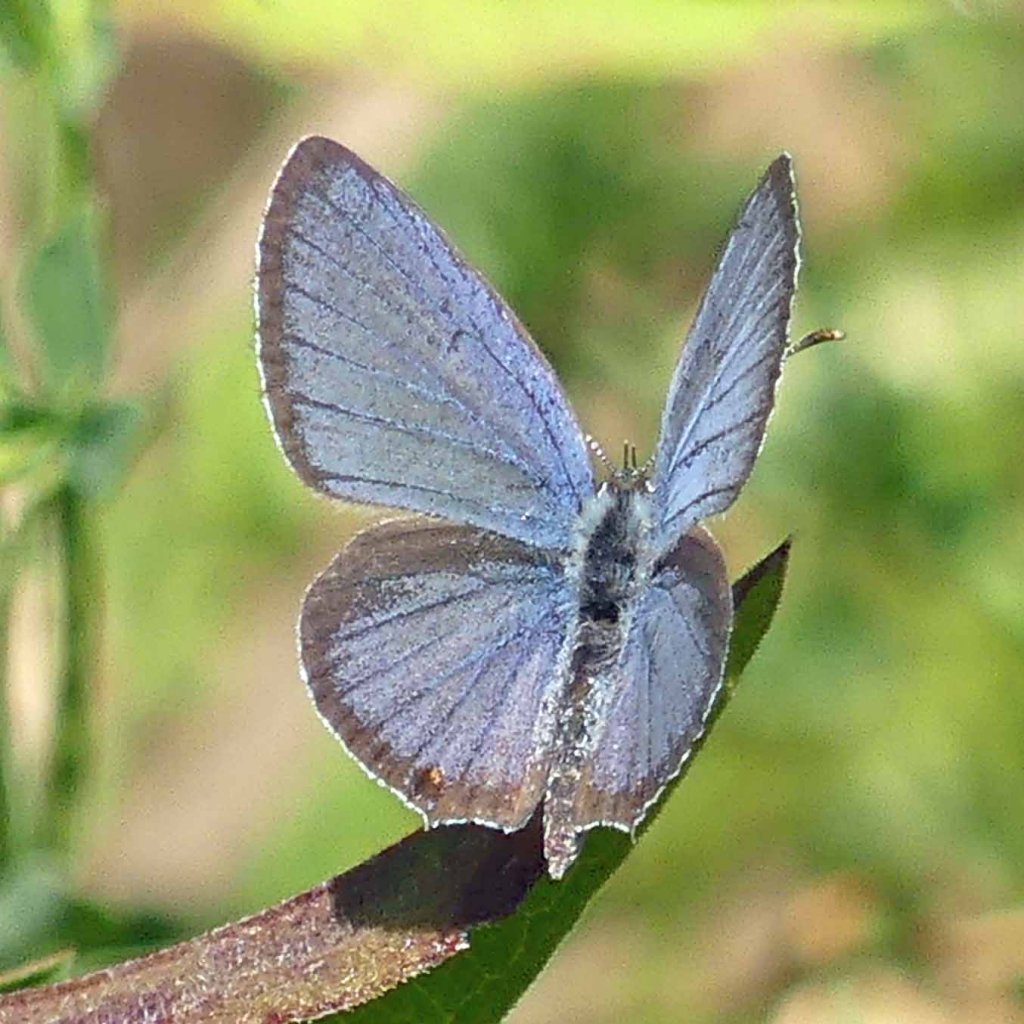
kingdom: Animalia
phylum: Arthropoda
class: Insecta
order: Lepidoptera
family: Lycaenidae
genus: Elkalyce
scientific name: Elkalyce comyntas
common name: Eastern Tailed-Blue
